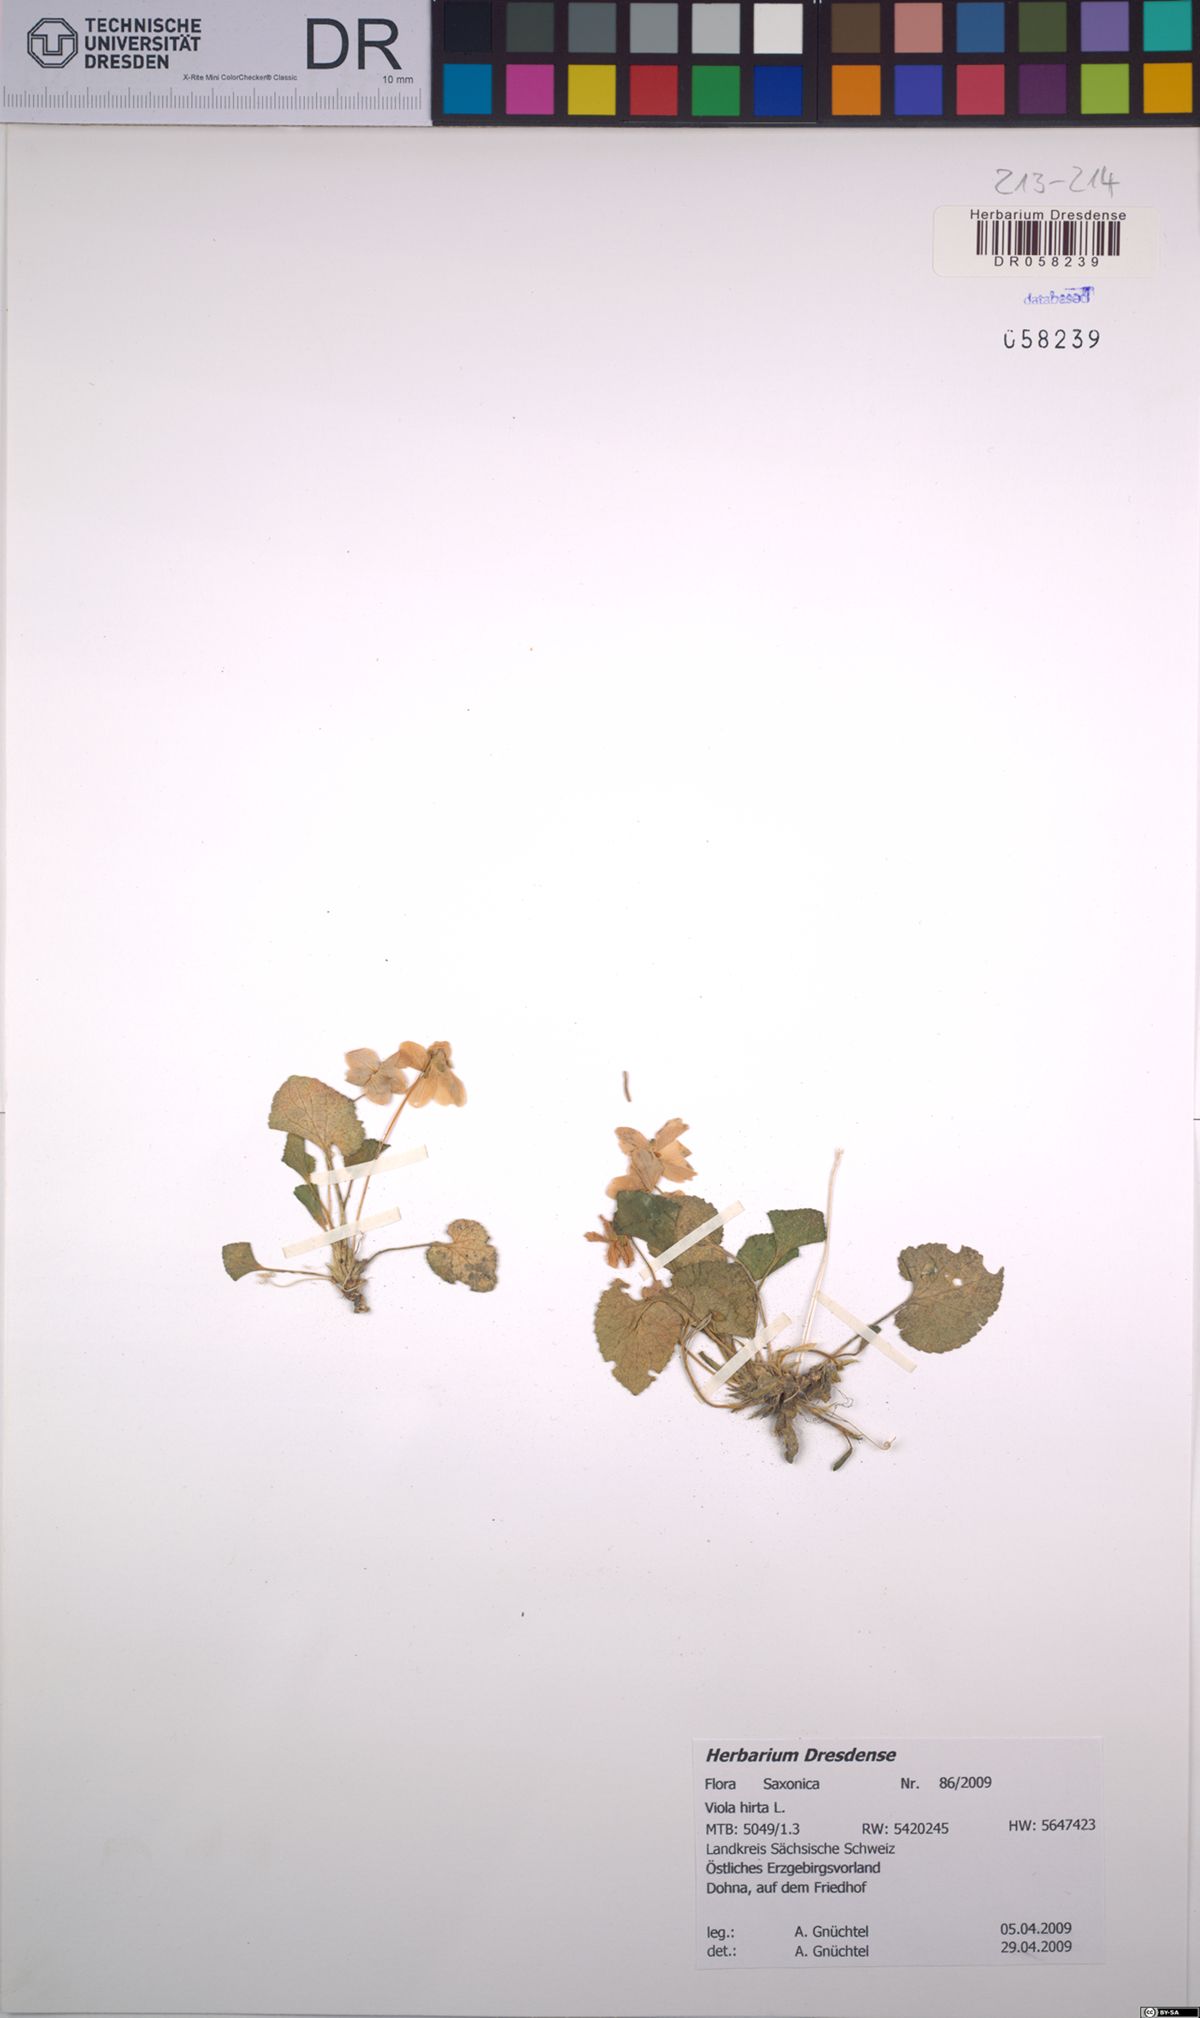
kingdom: Plantae
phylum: Tracheophyta
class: Magnoliopsida
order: Malpighiales
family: Violaceae
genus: Viola
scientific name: Viola hirta
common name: Hairy violet
